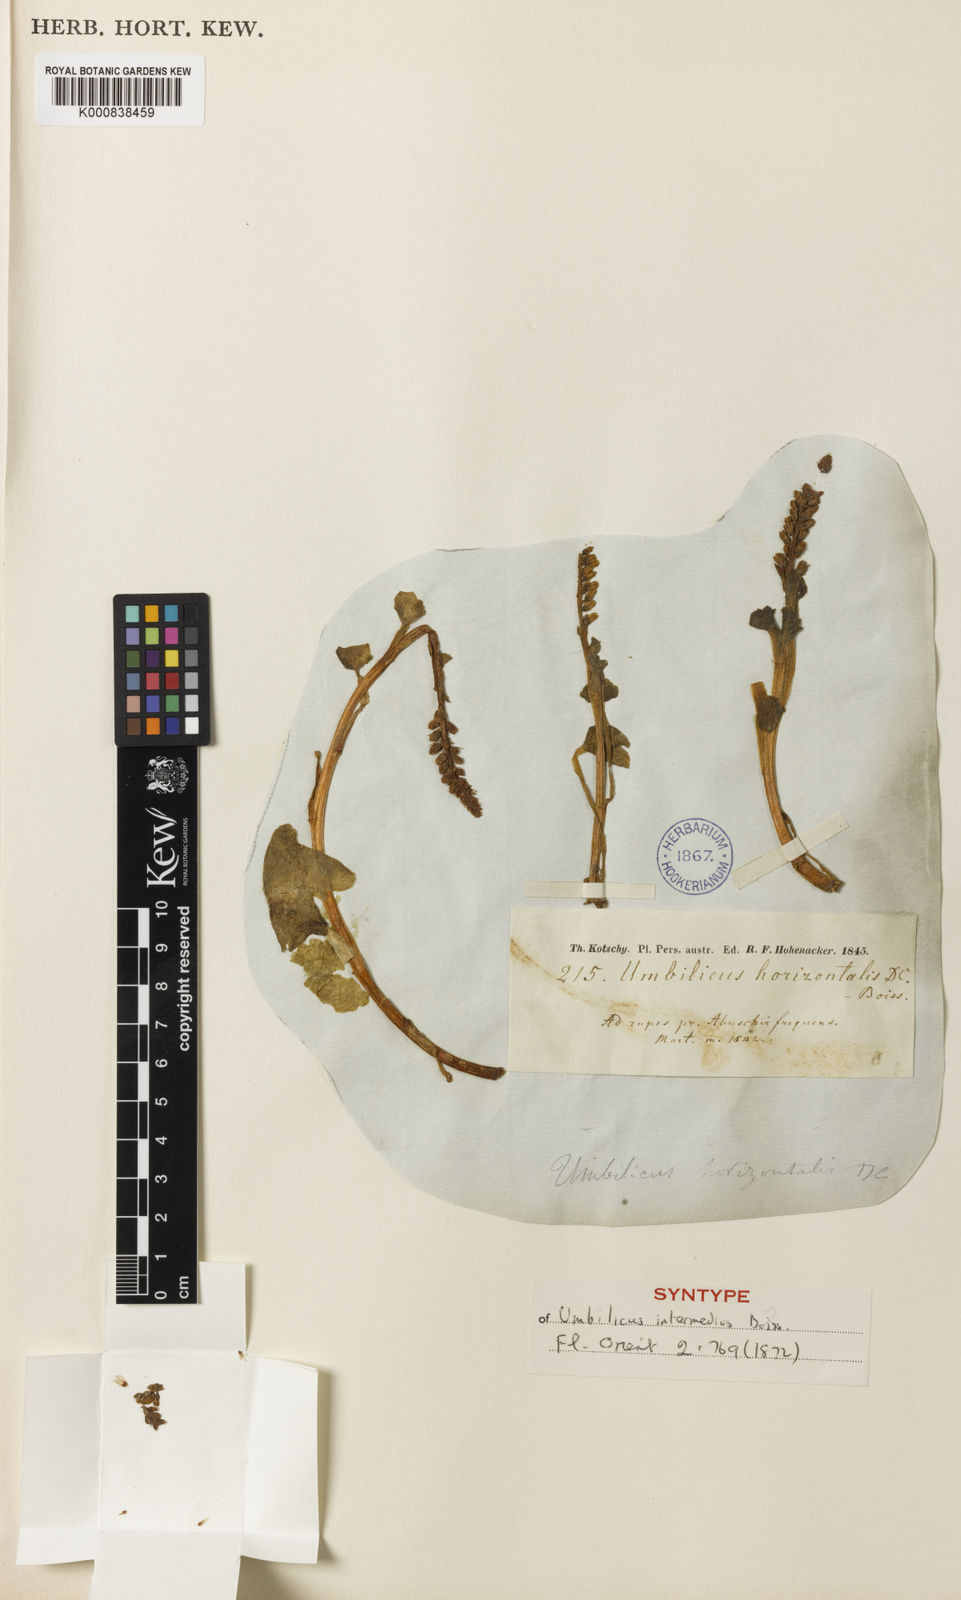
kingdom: Plantae
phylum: Tracheophyta
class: Magnoliopsida
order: Saxifragales
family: Crassulaceae
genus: Umbilicus
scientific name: Umbilicus horizontalis
